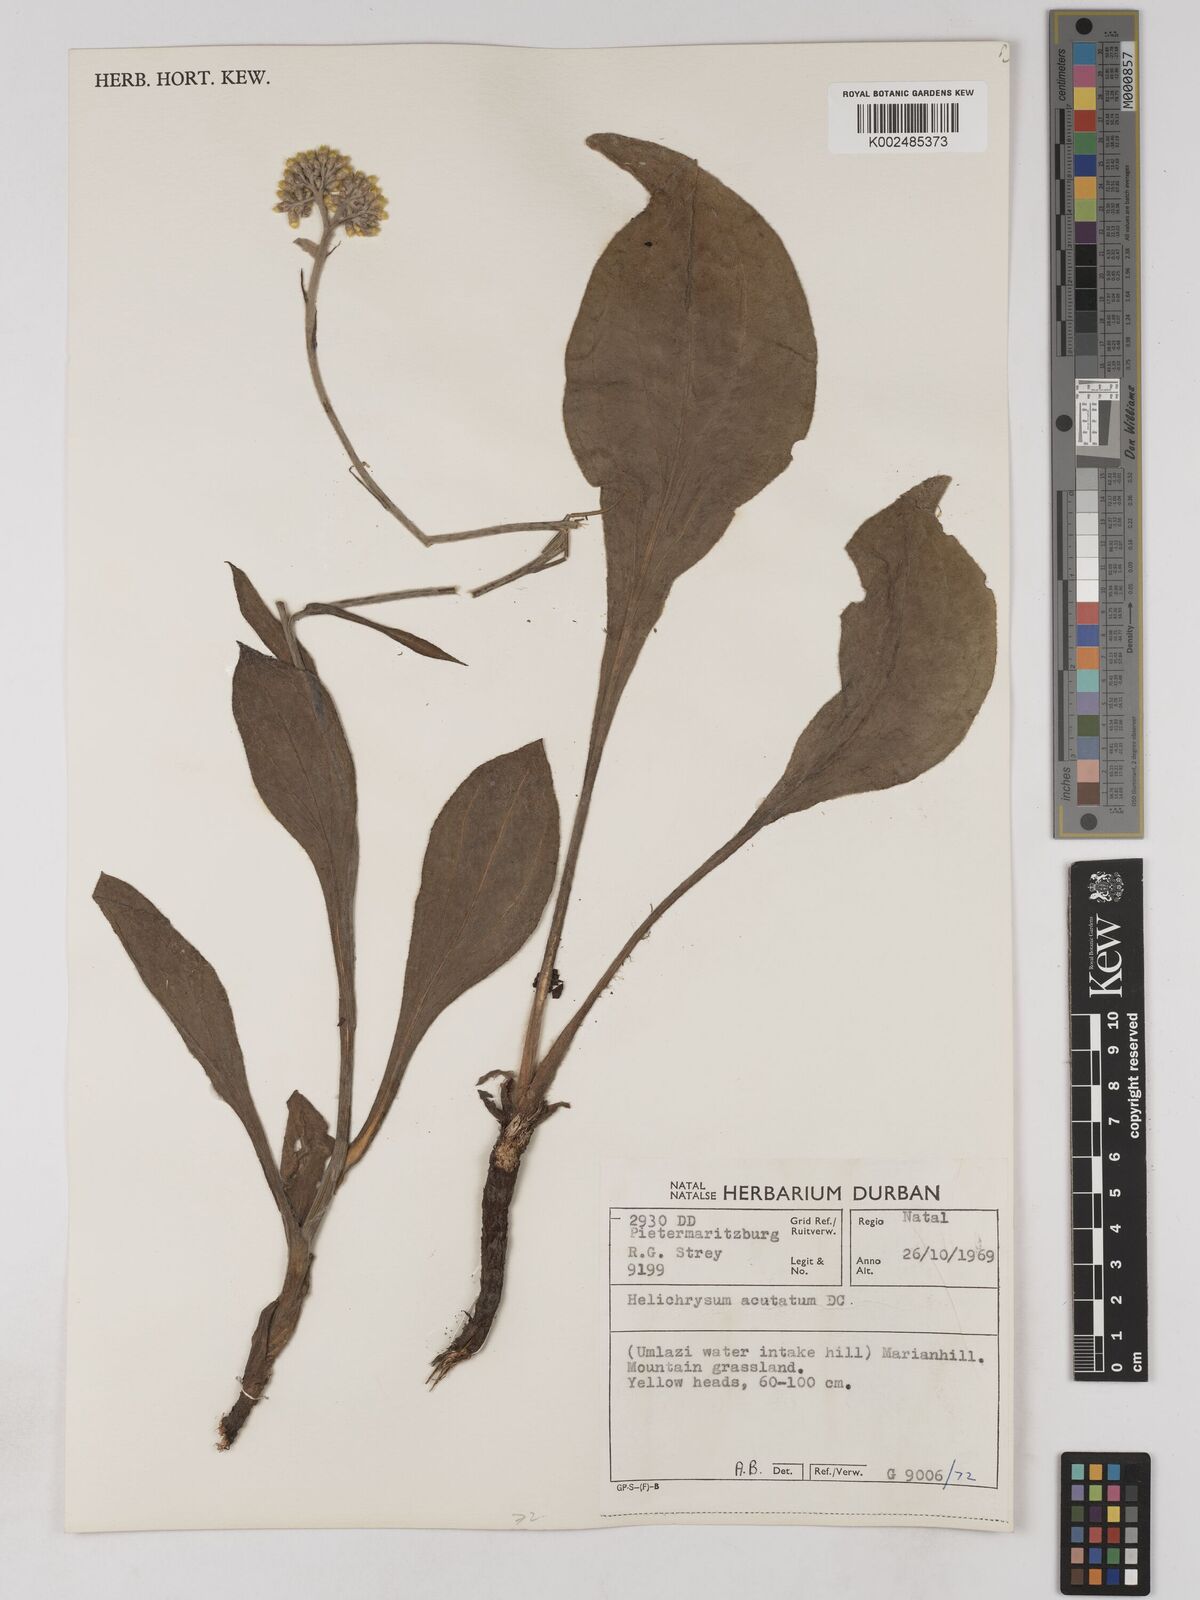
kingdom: Plantae
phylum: Tracheophyta
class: Magnoliopsida
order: Asterales
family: Asteraceae
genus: Helichrysum
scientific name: Helichrysum acutatum
